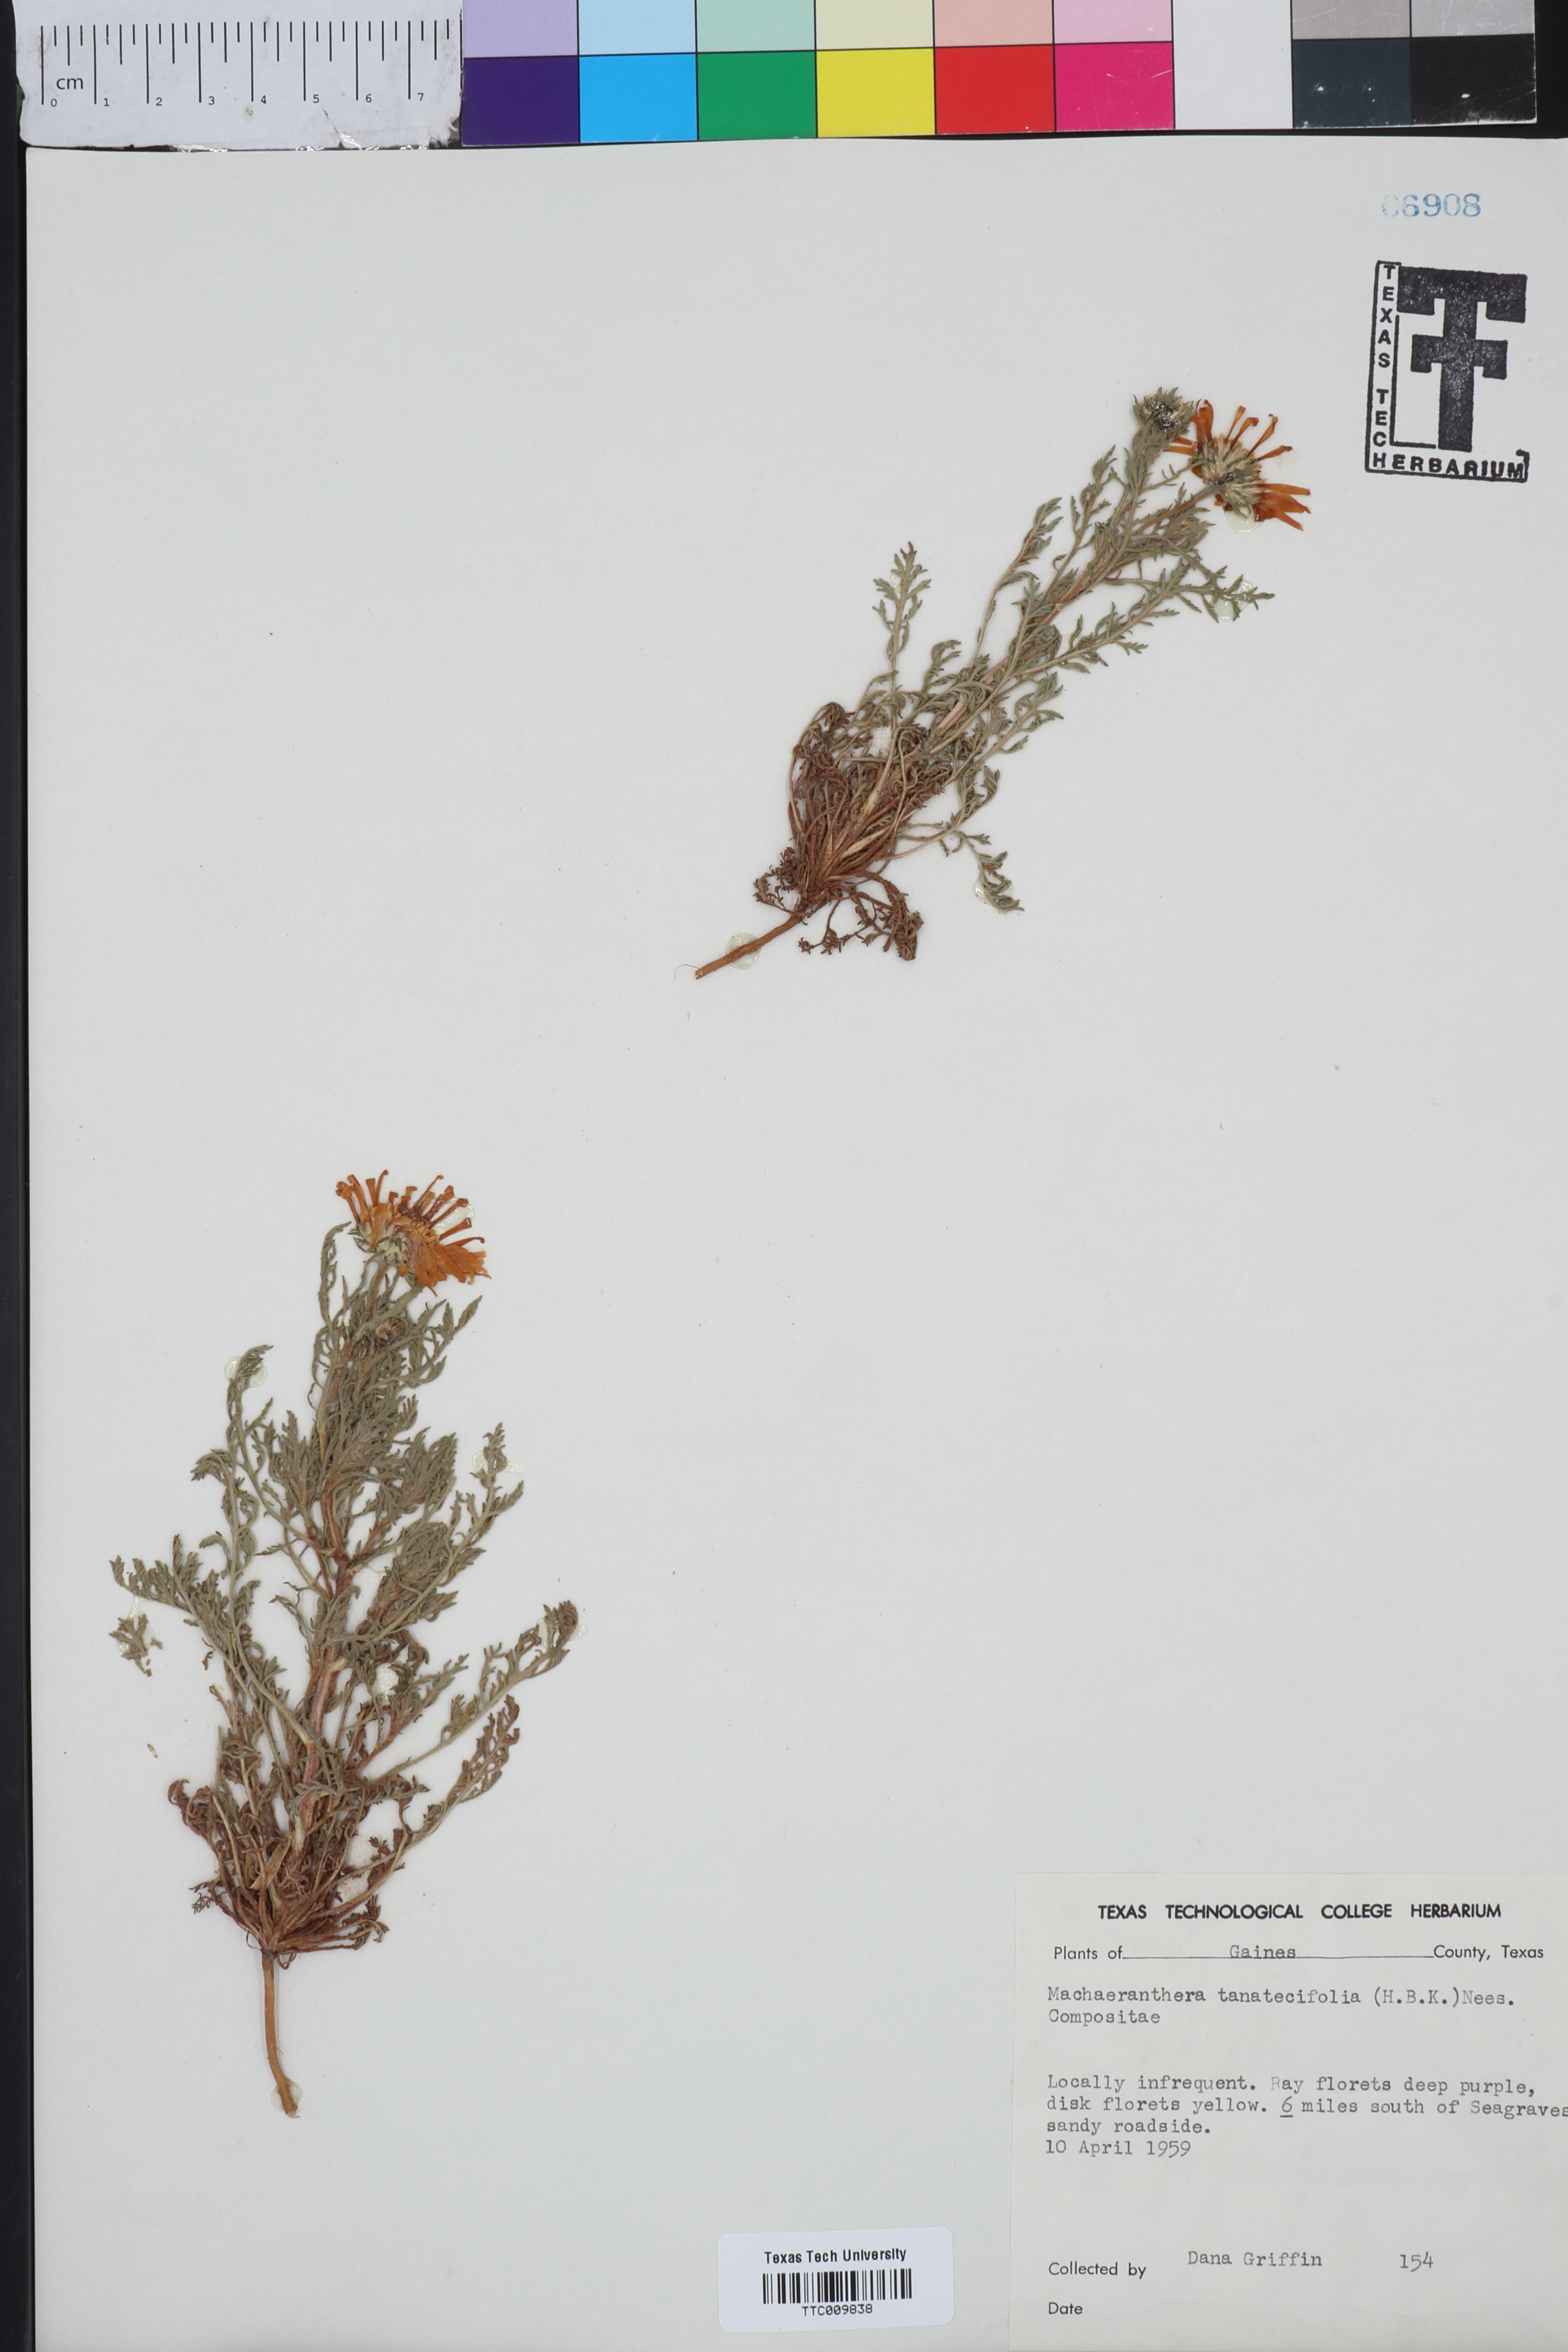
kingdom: Plantae
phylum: Tracheophyta
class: Magnoliopsida
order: Asterales
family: Asteraceae
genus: Machaeranthera
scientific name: Machaeranthera tanacetifolia
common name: Tansy-aster
